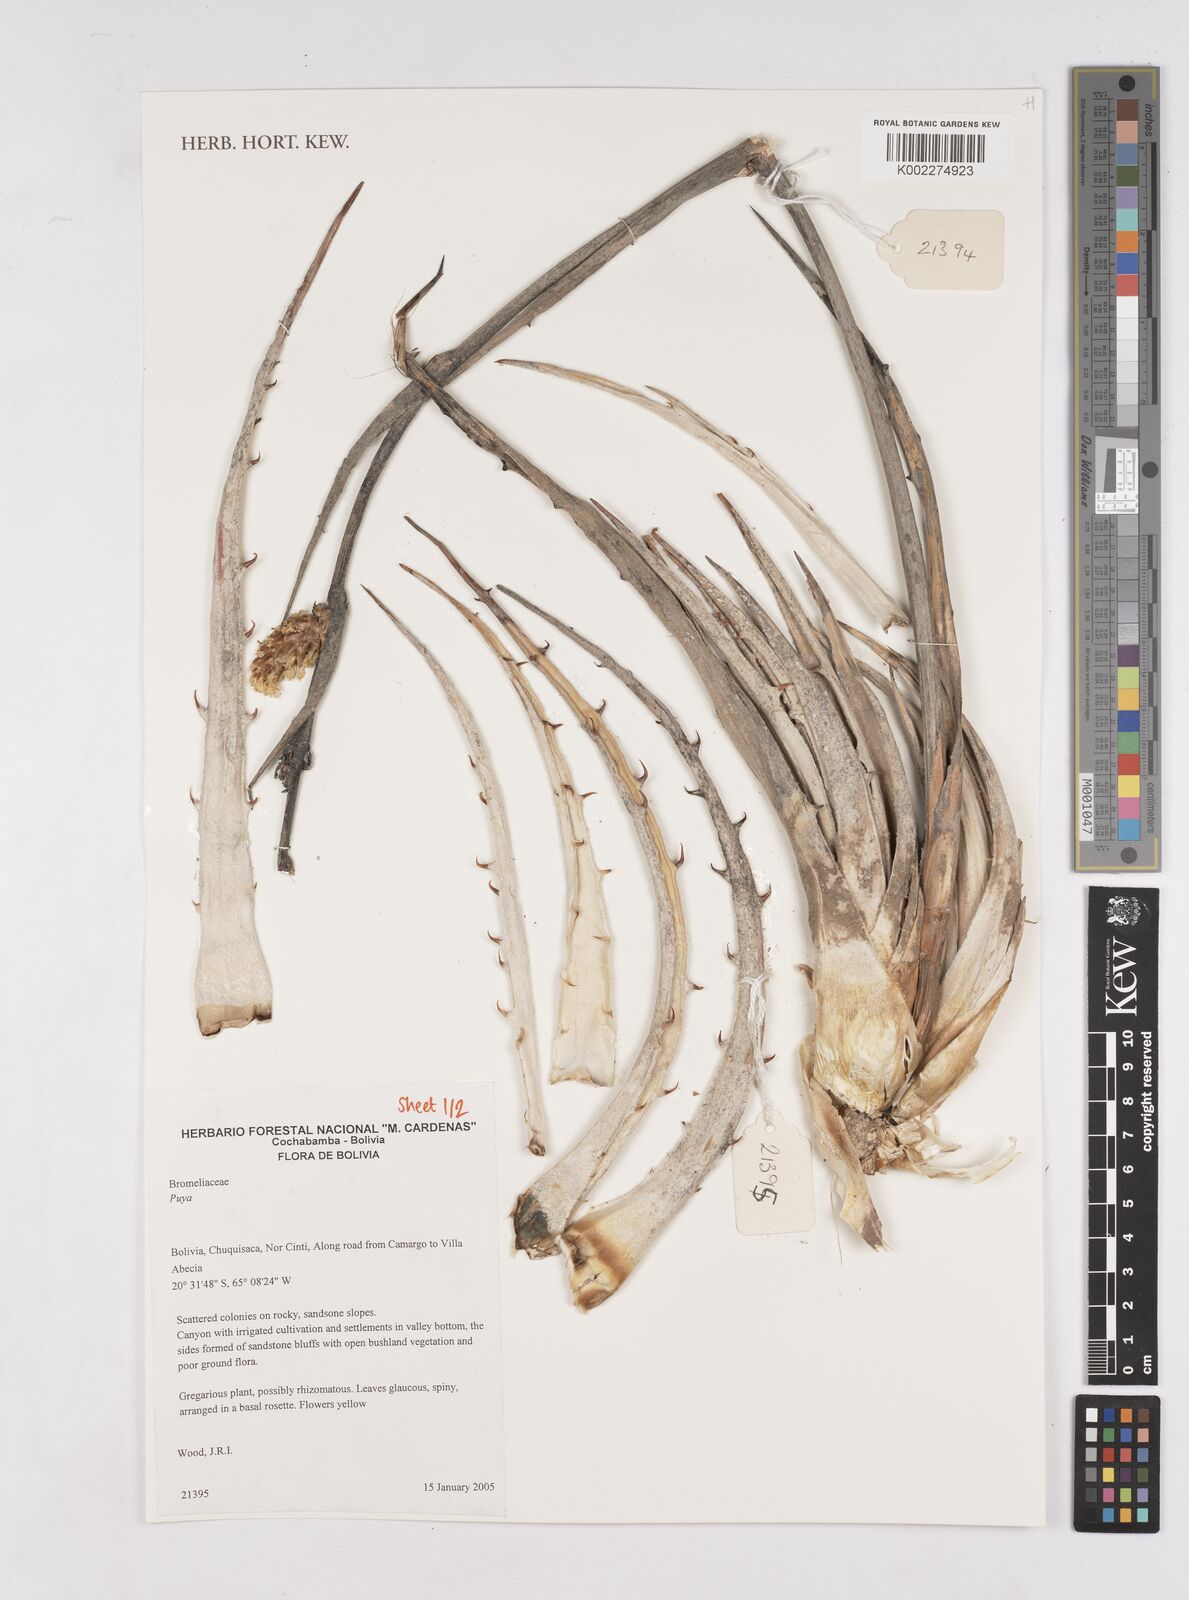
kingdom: Plantae
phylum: Tracheophyta
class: Liliopsida
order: Poales
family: Bromeliaceae
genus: Puya
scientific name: Puya
